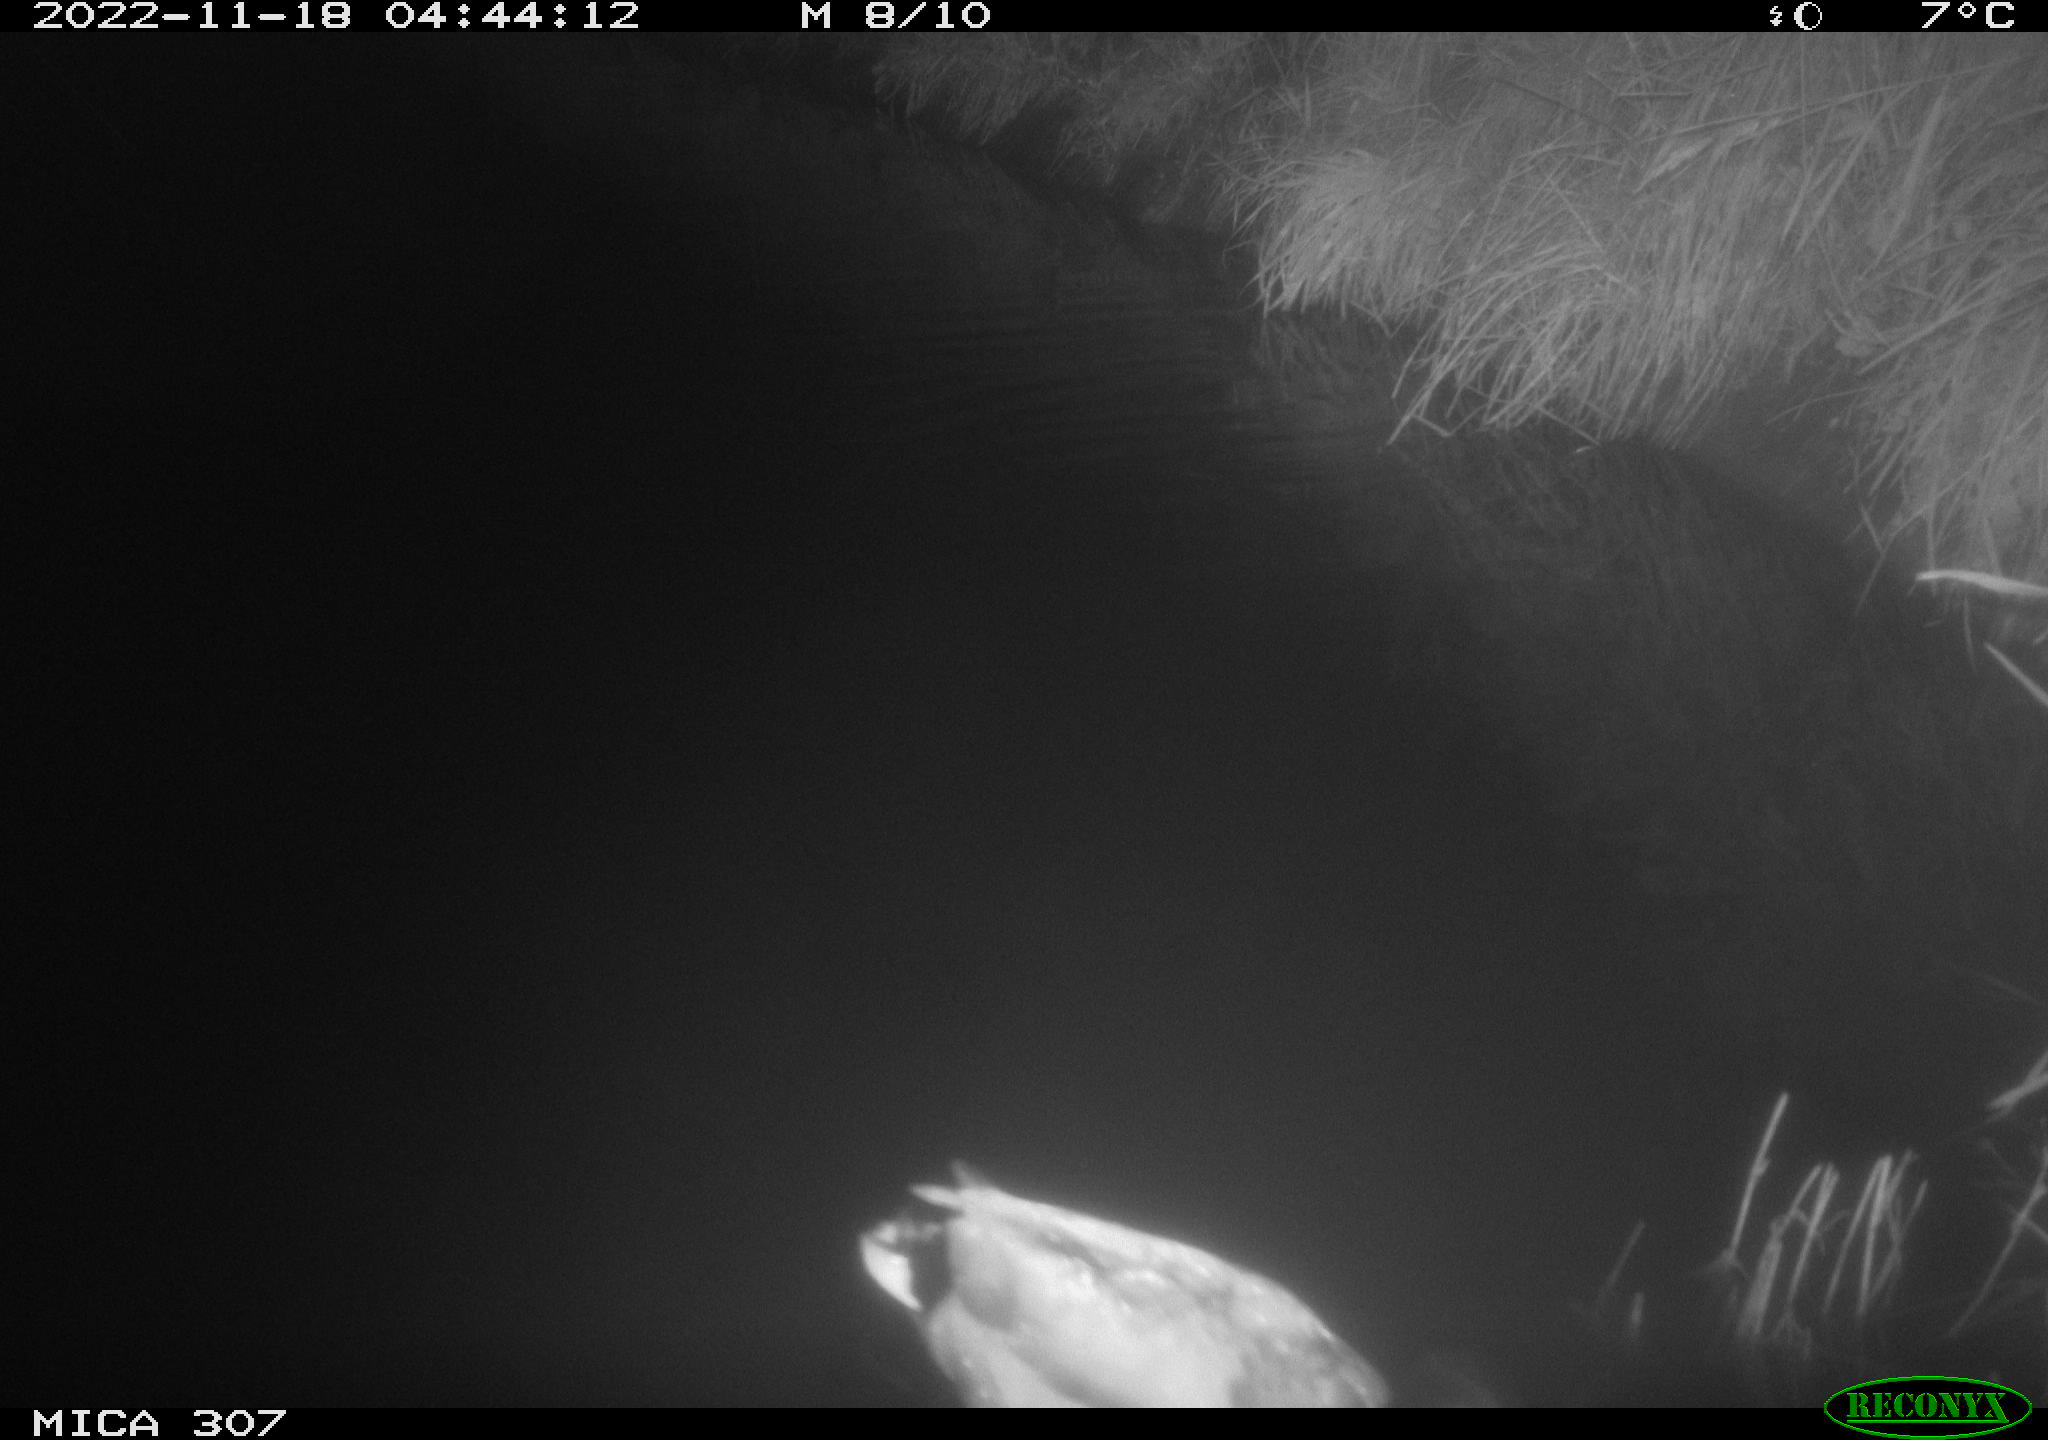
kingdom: Animalia
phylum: Chordata
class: Aves
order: Anseriformes
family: Anatidae
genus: Anas
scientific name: Anas
